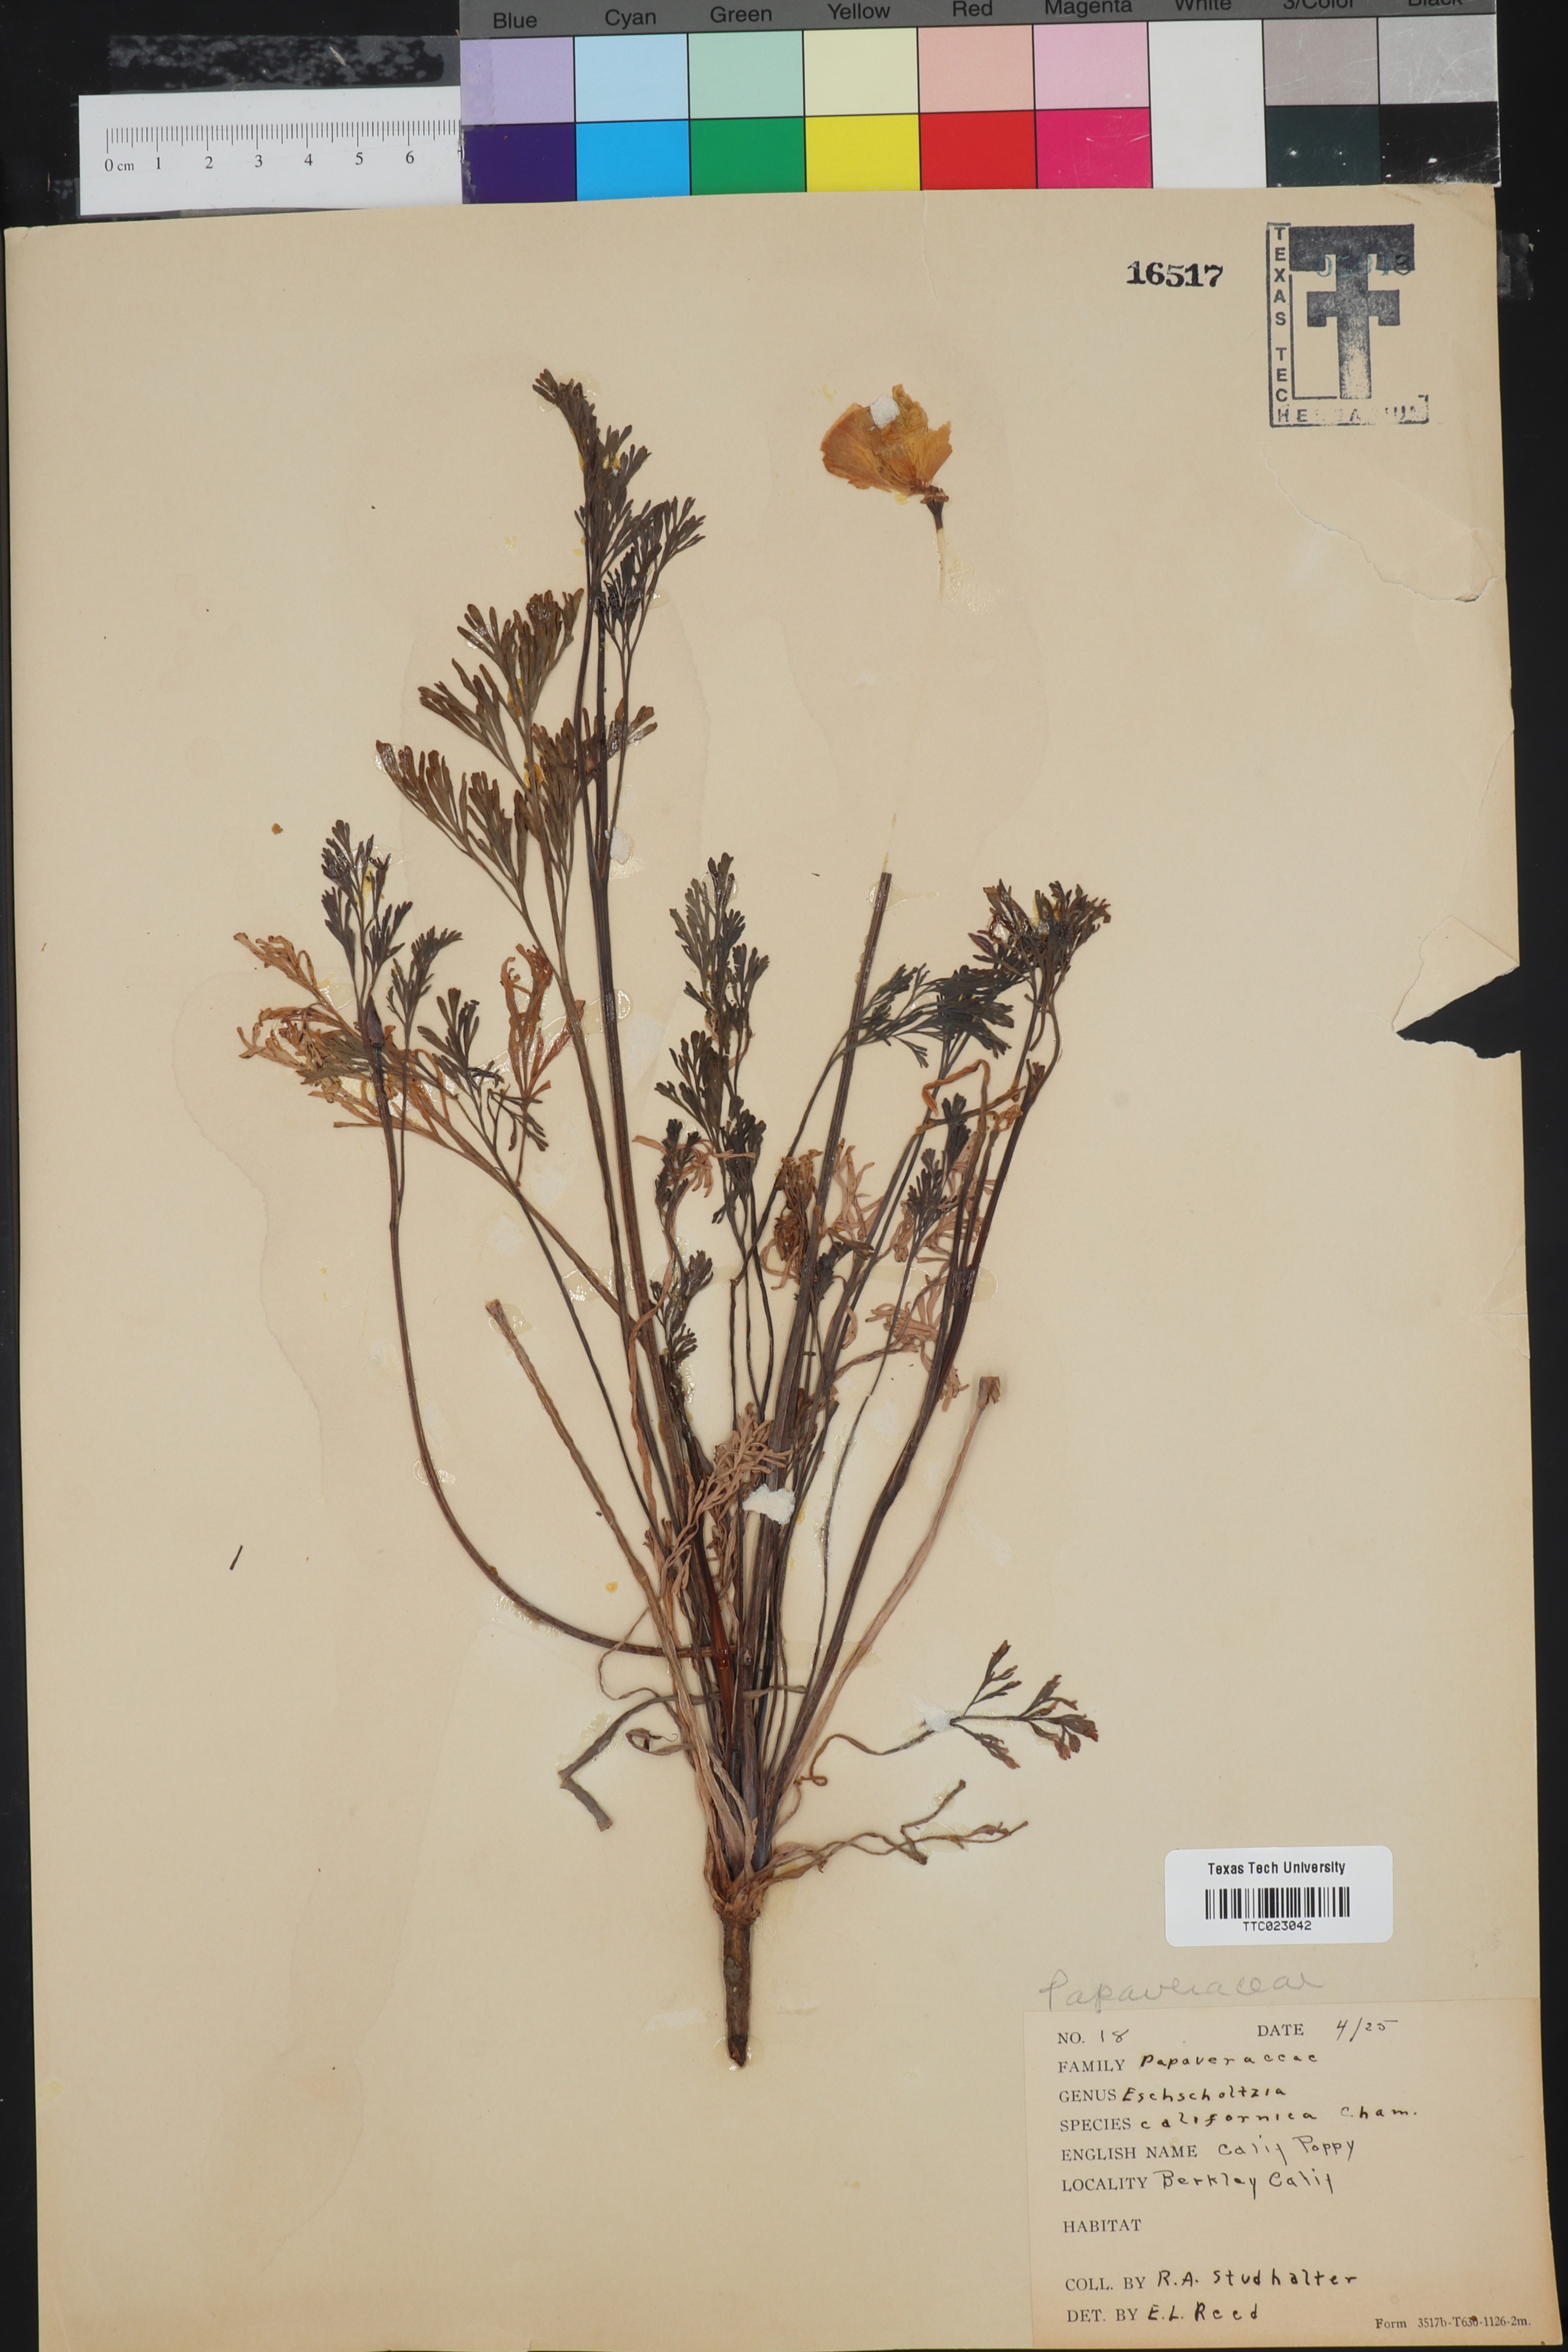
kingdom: Plantae
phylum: Tracheophyta
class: Magnoliopsida
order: Ranunculales
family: Papaveraceae
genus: Eschscholzia
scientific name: Eschscholzia californica
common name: California poppy
